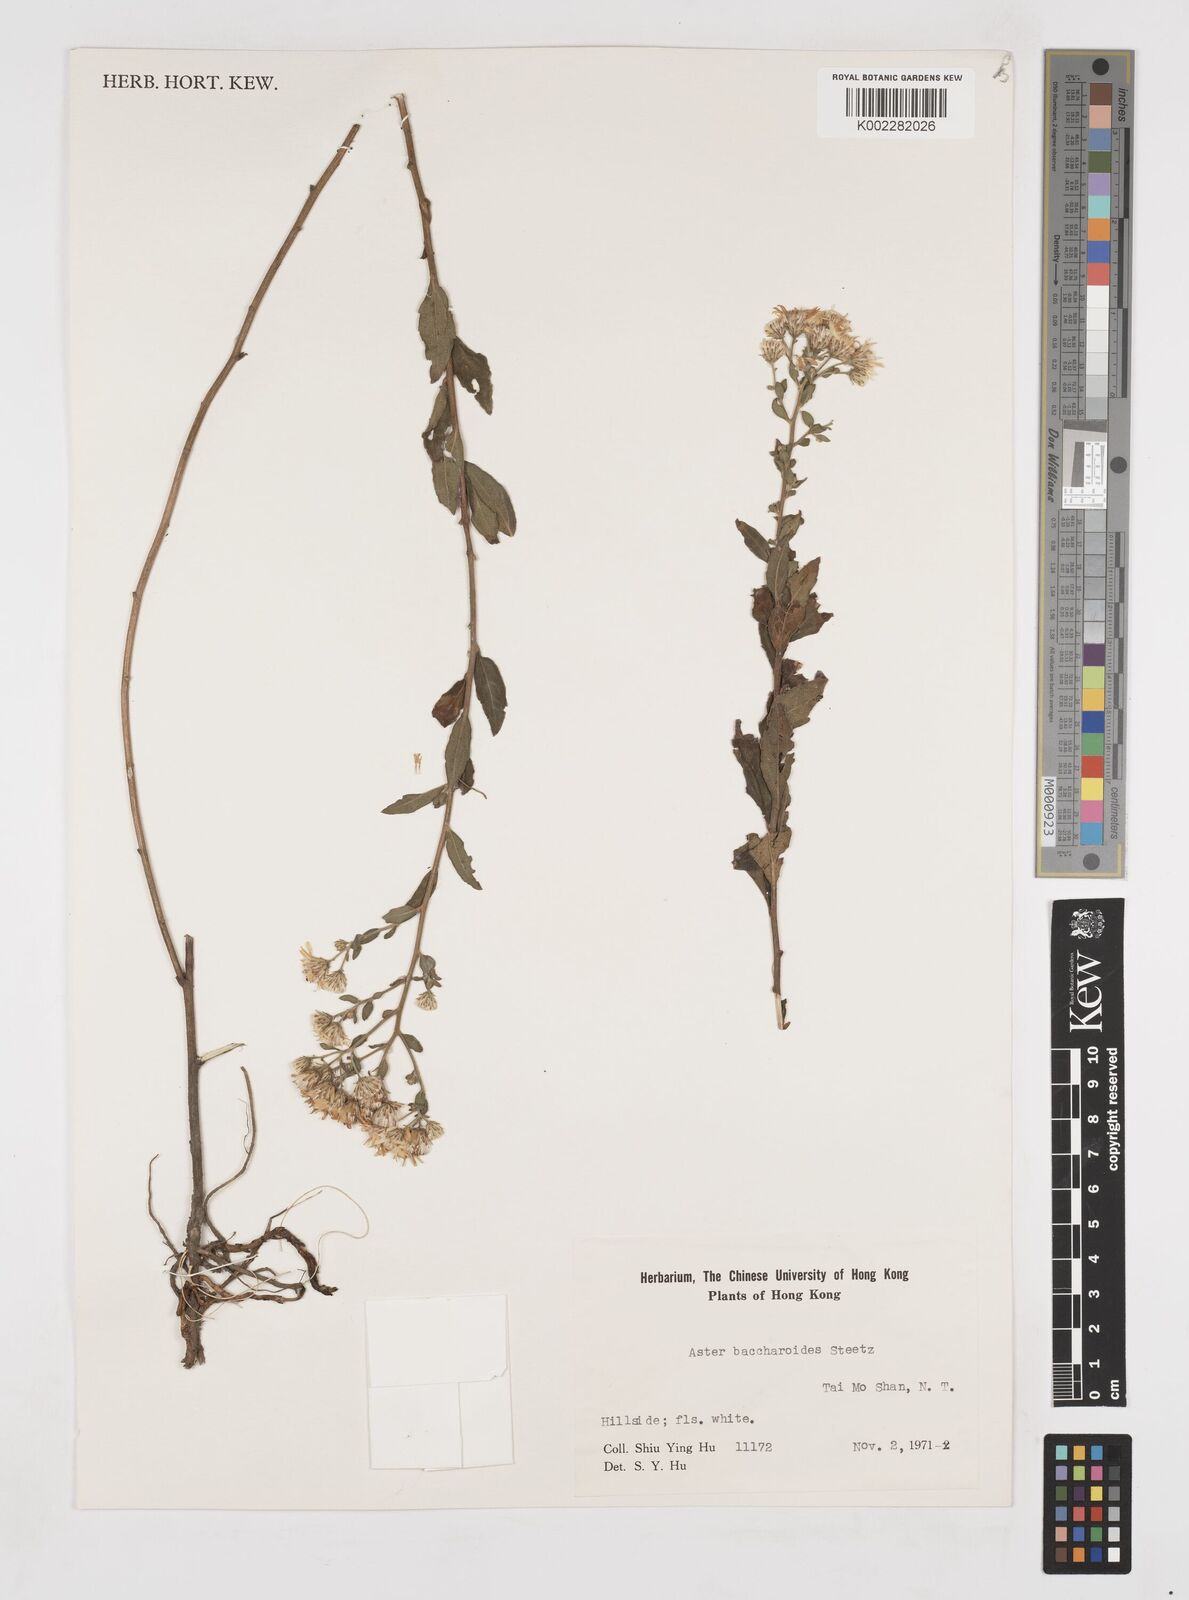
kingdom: Plantae
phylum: Tracheophyta
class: Magnoliopsida
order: Asterales
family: Asteraceae
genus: Aster
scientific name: Aster baccharoides
